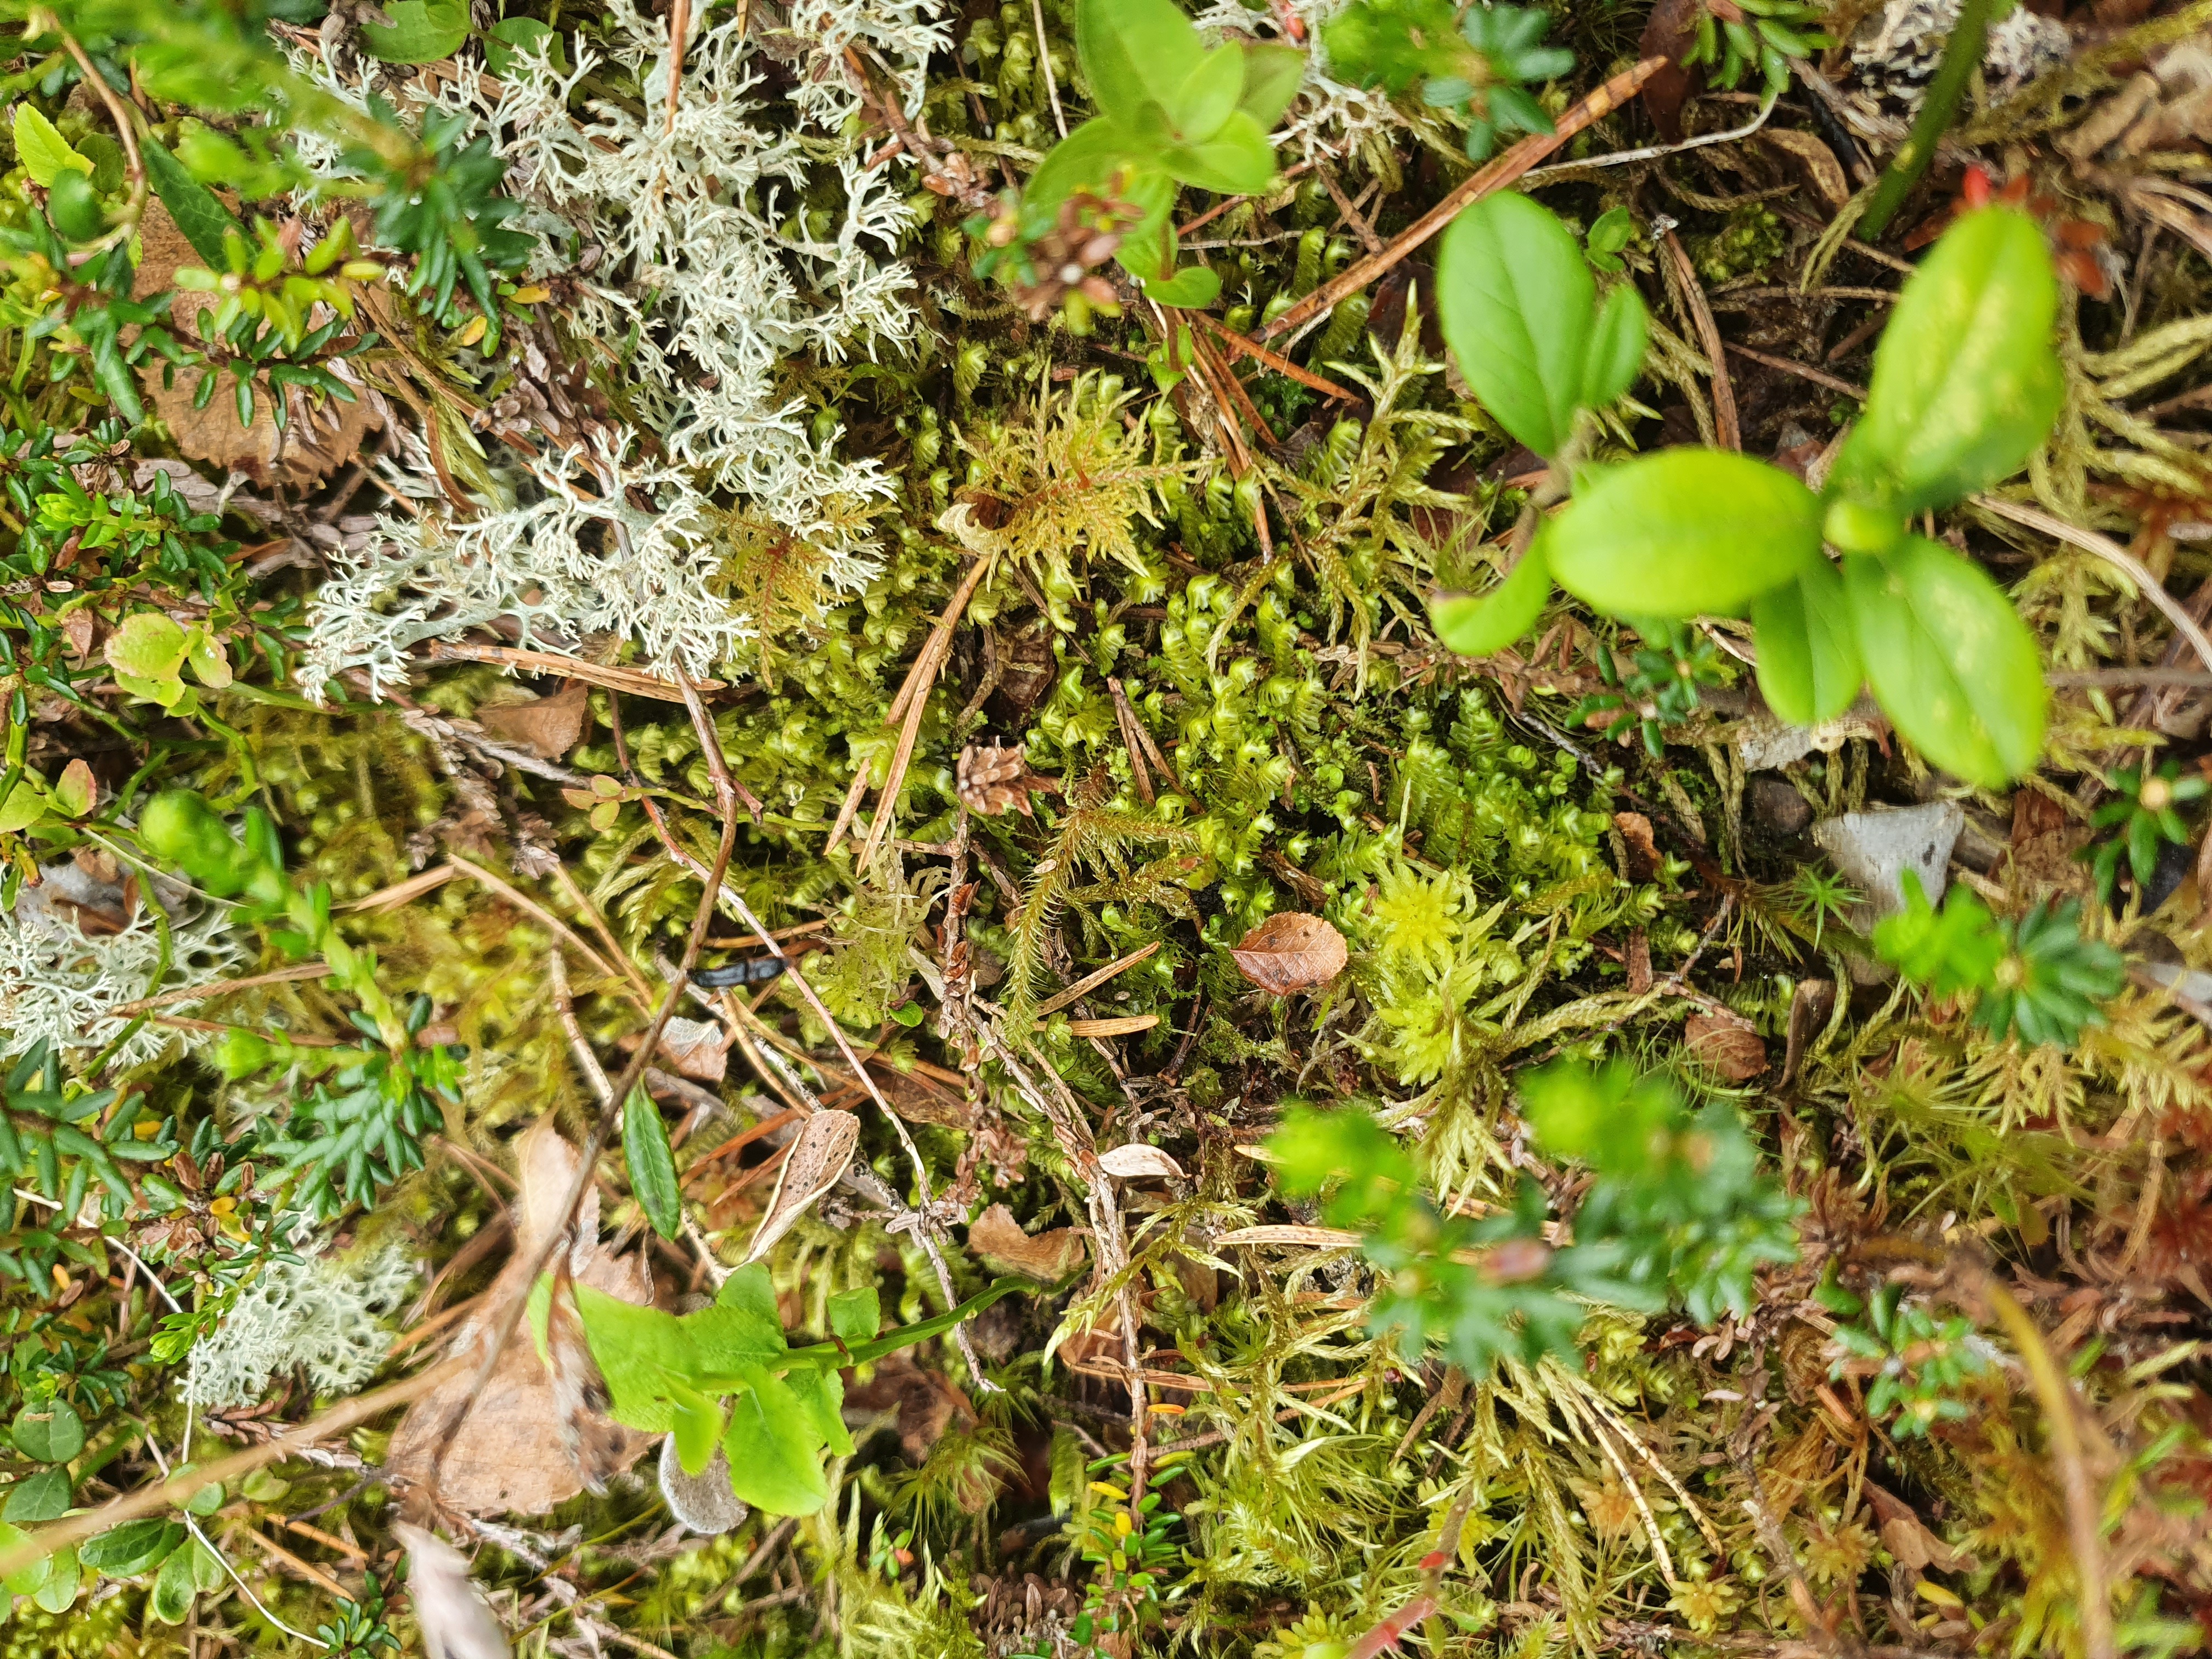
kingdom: Plantae
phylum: Marchantiophyta
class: Jungermanniopsida
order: Jungermanniales
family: Lepidoziaceae
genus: Bazzania
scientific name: Bazzania trilobata
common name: Three-lobed whipwort
